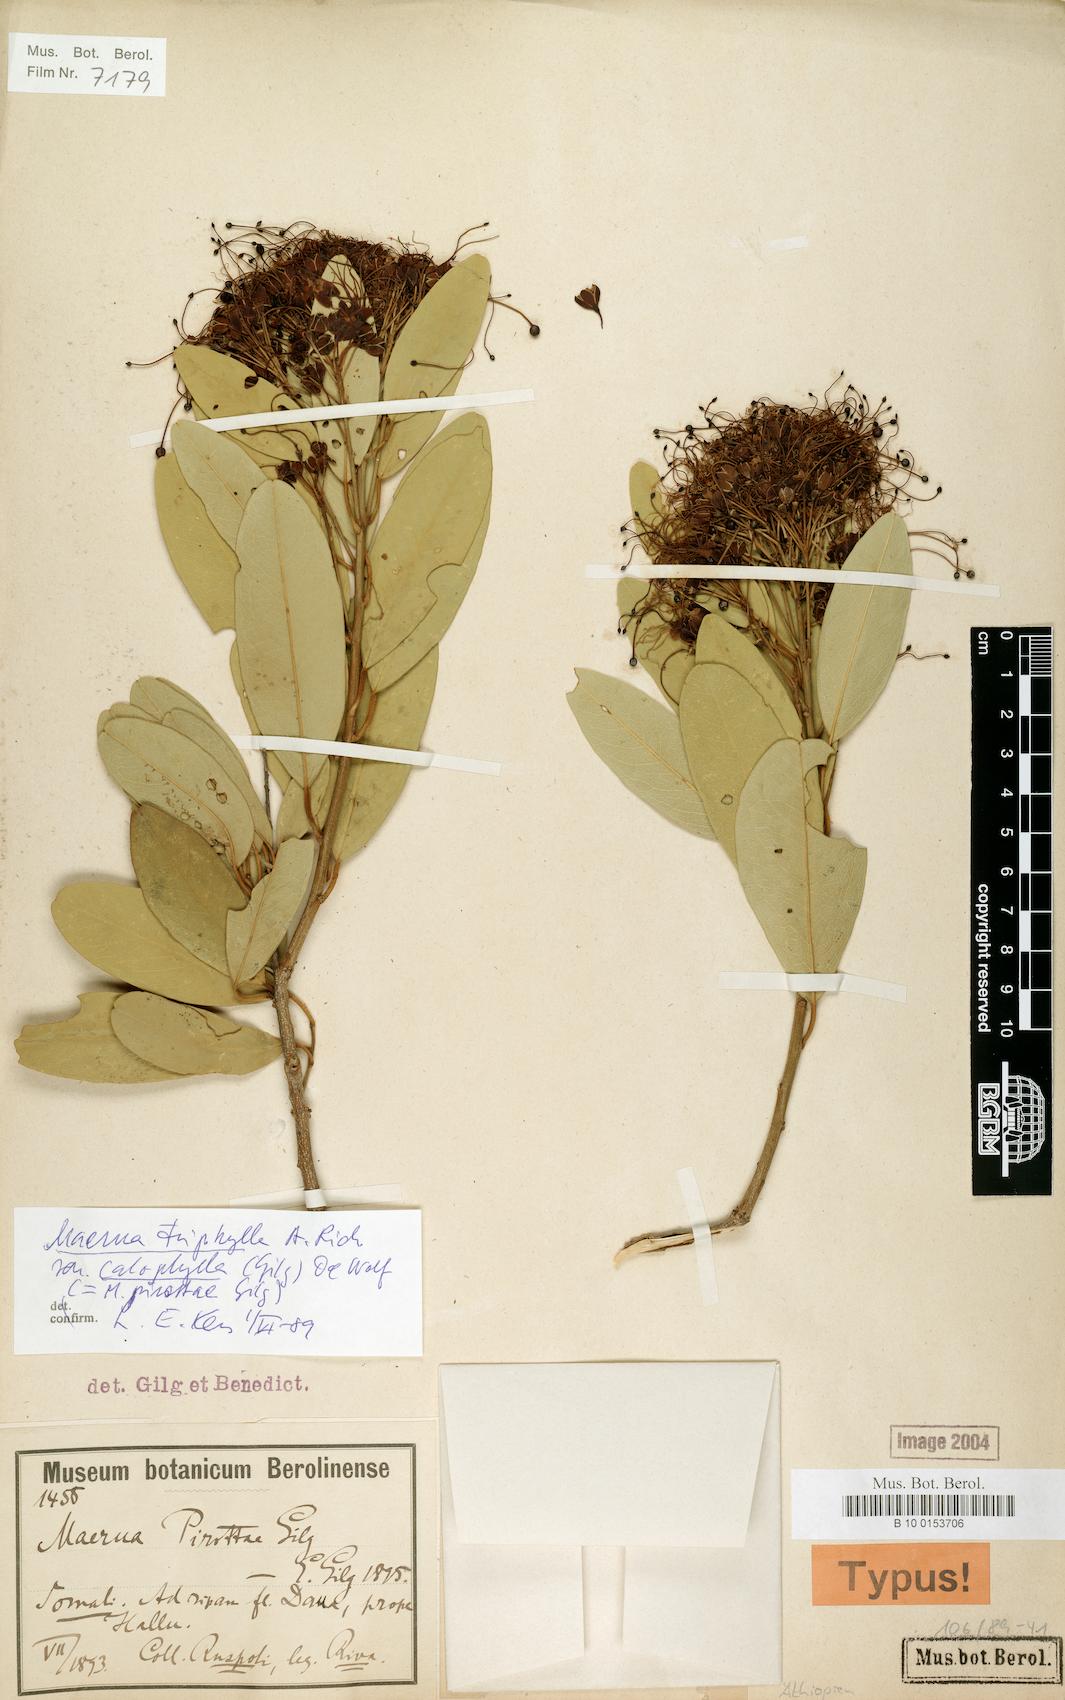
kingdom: Plantae
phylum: Tracheophyta
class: Magnoliopsida
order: Brassicales
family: Capparaceae
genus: Maerua
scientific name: Maerua triphylla
